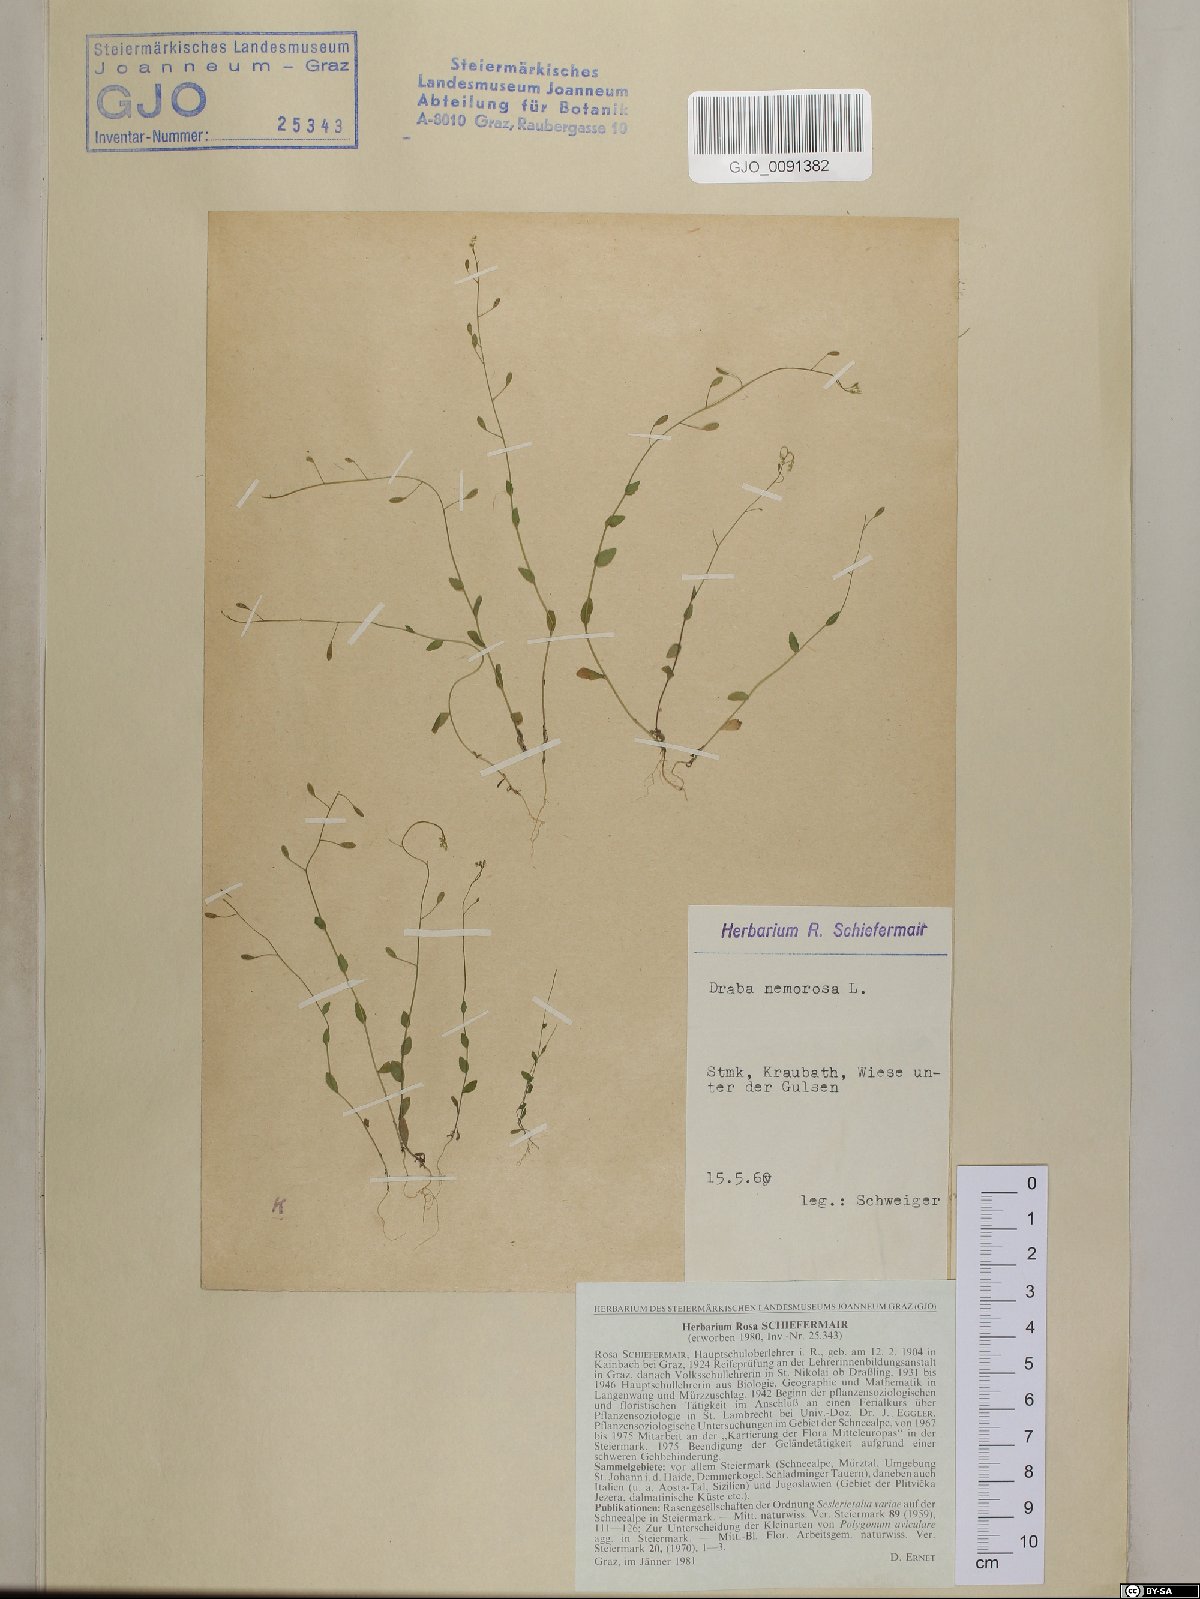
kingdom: Plantae
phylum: Tracheophyta
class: Magnoliopsida
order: Brassicales
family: Brassicaceae
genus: Draba
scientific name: Draba nemorosa
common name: Wood whitlow-grass
